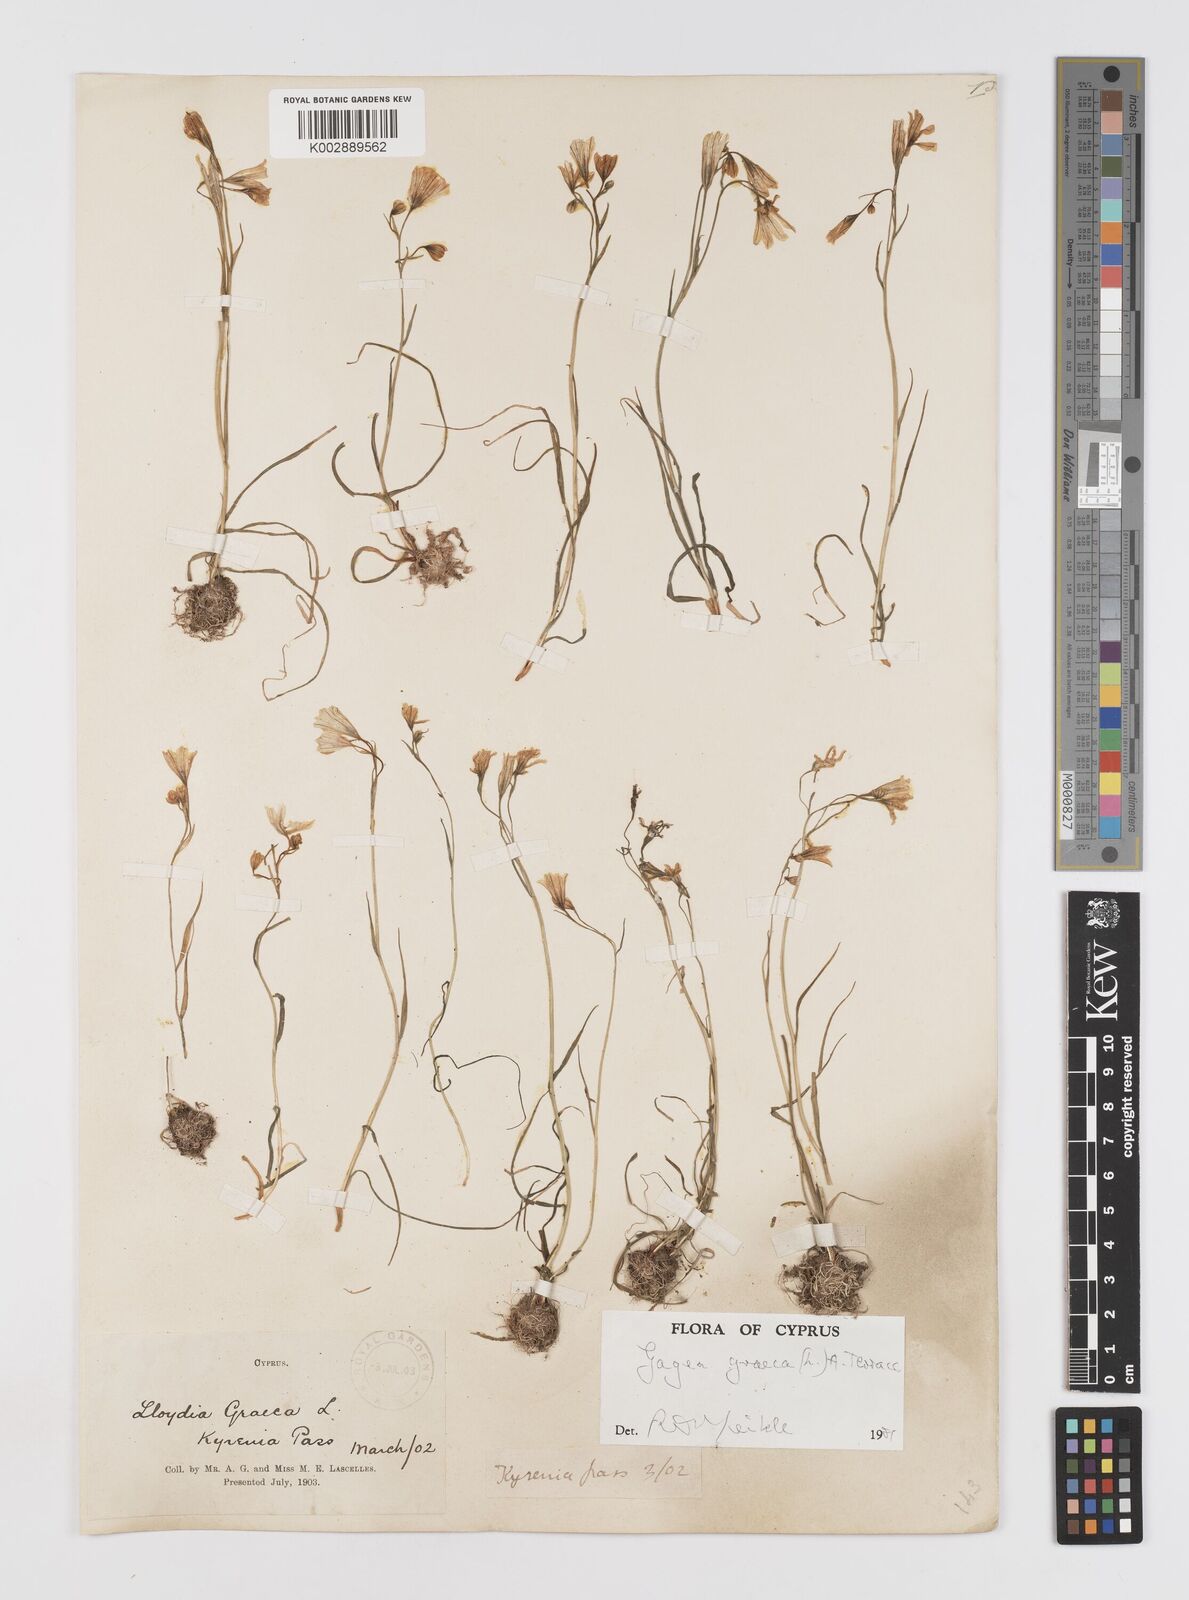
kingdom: Plantae
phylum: Tracheophyta
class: Liliopsida
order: Liliales
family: Liliaceae
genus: Gagea
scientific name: Gagea graeca
